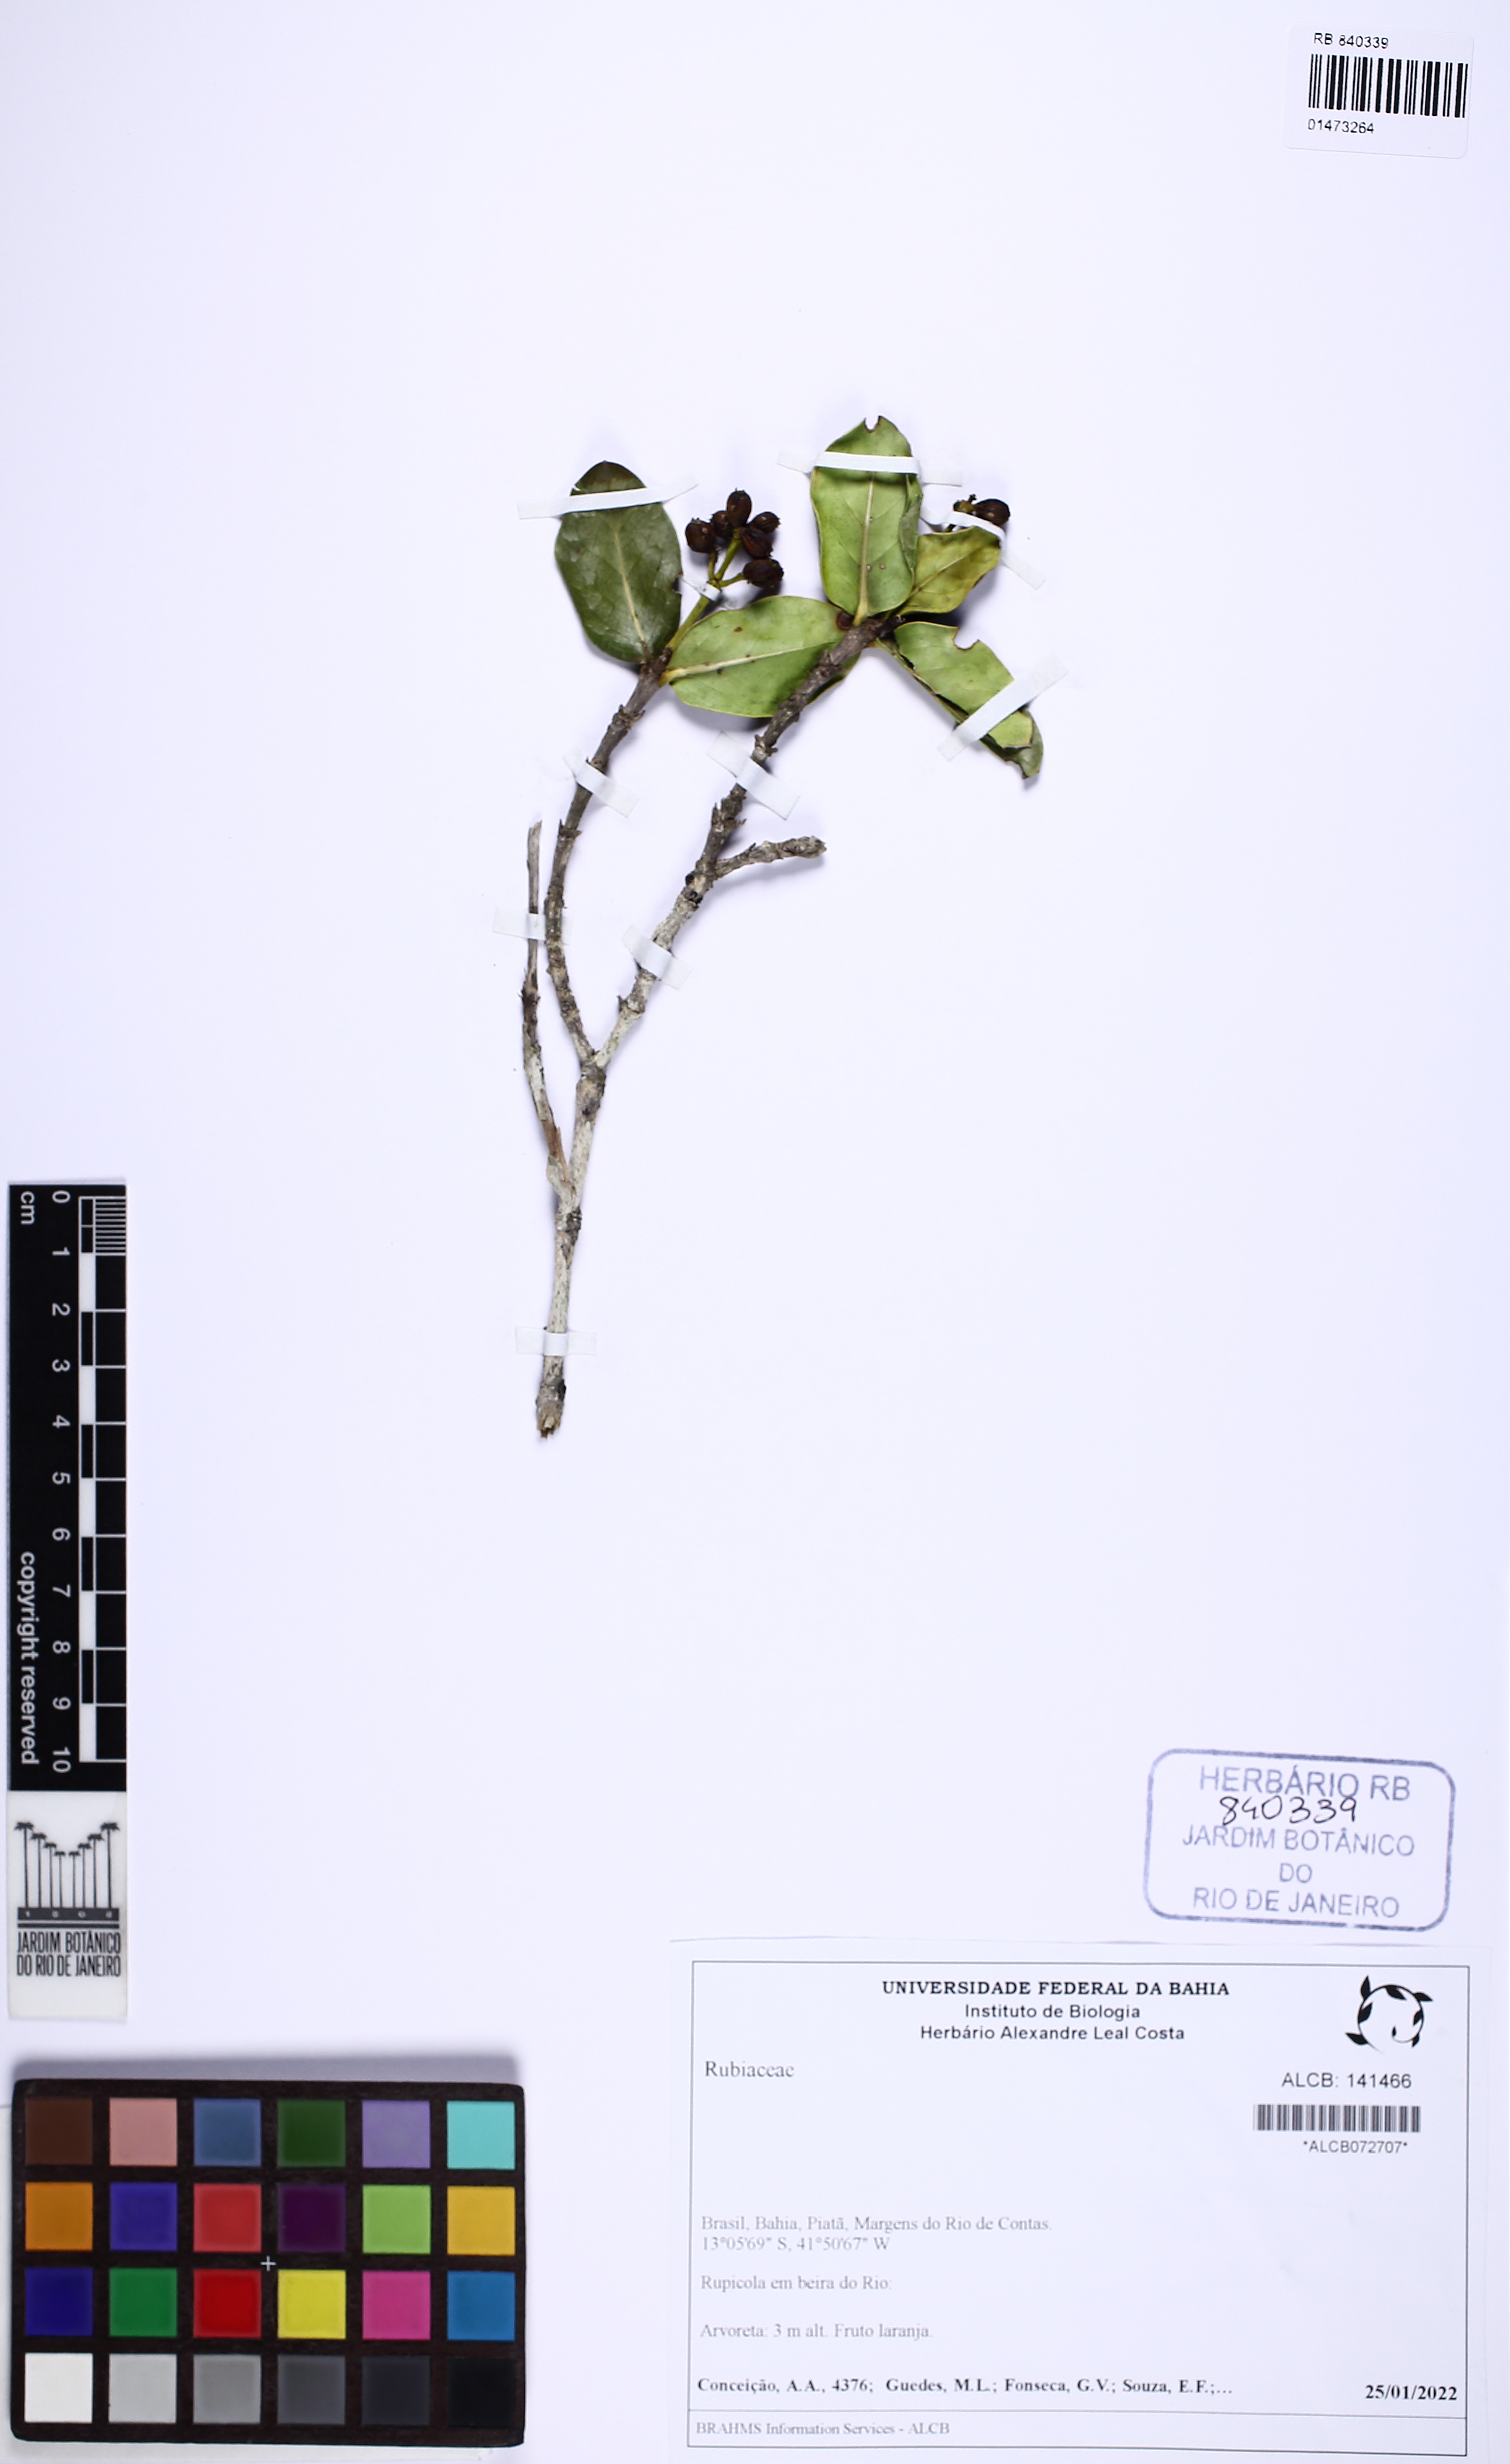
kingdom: Plantae
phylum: Tracheophyta
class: Magnoliopsida
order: Gentianales
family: Rubiaceae
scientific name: Rubiaceae
